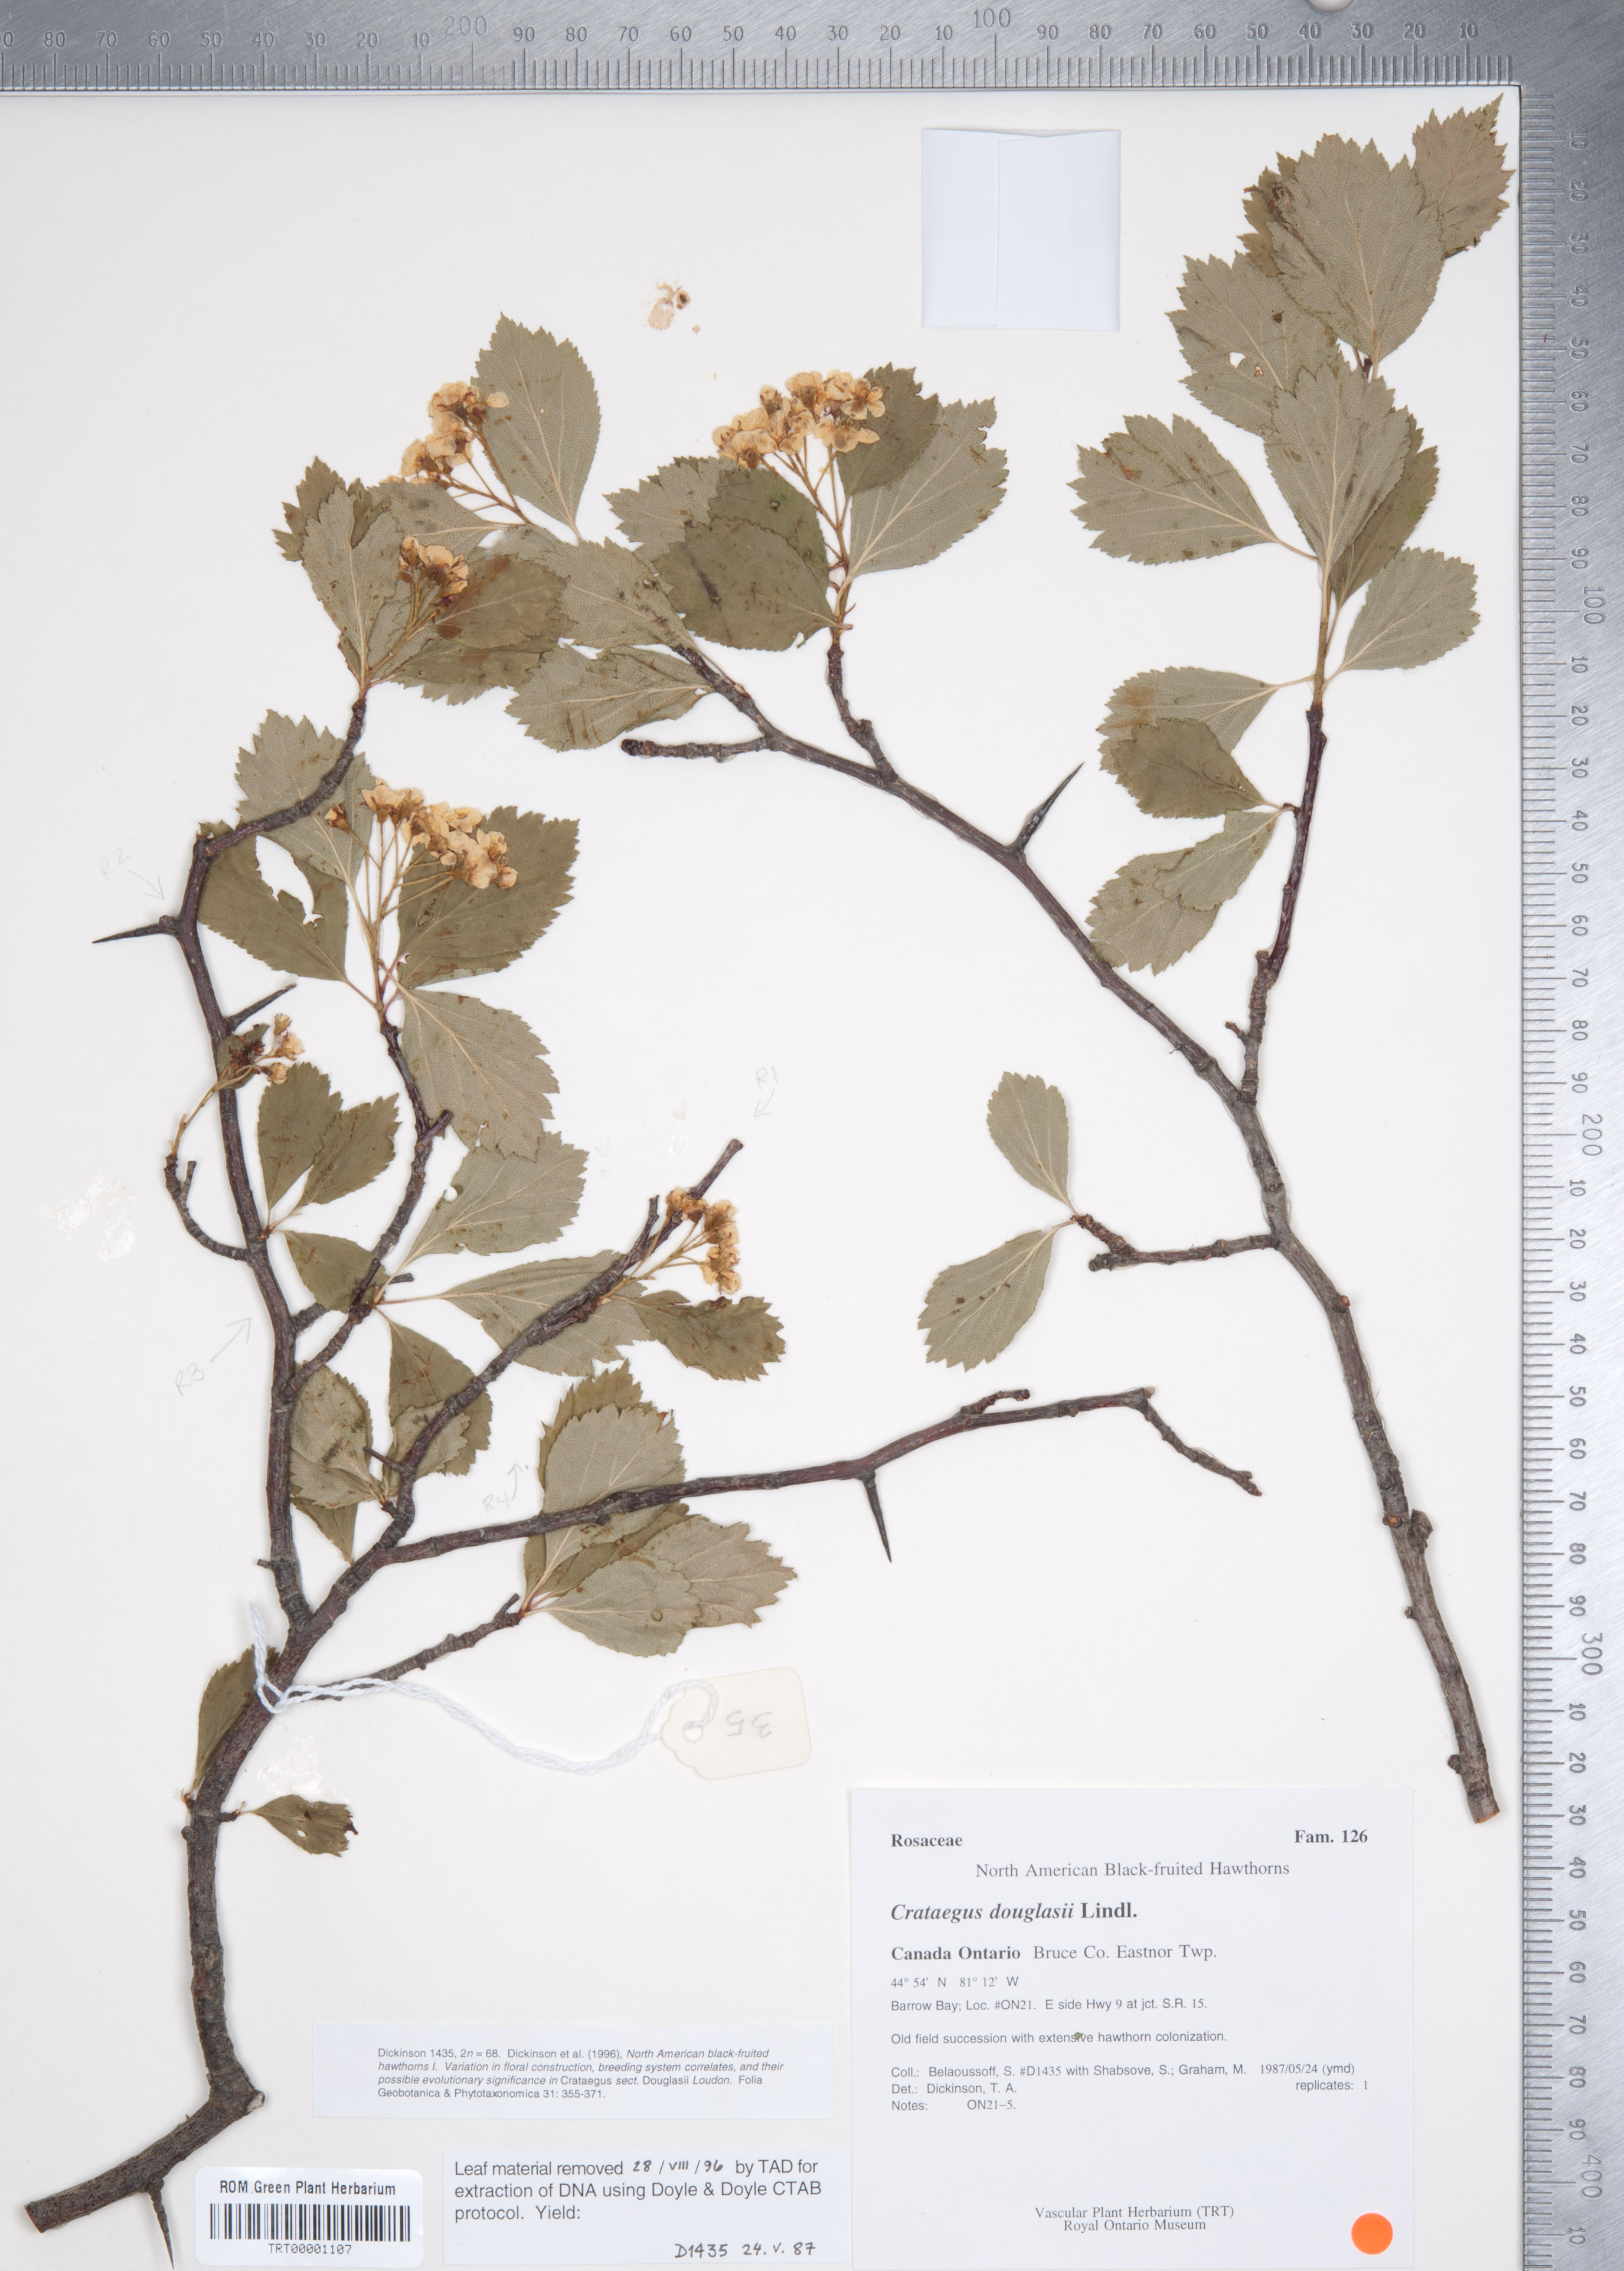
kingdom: Plantae
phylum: Tracheophyta
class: Magnoliopsida
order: Rosales
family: Rosaceae
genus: Crataegus
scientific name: Crataegus douglasii
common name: Black hawthorn
